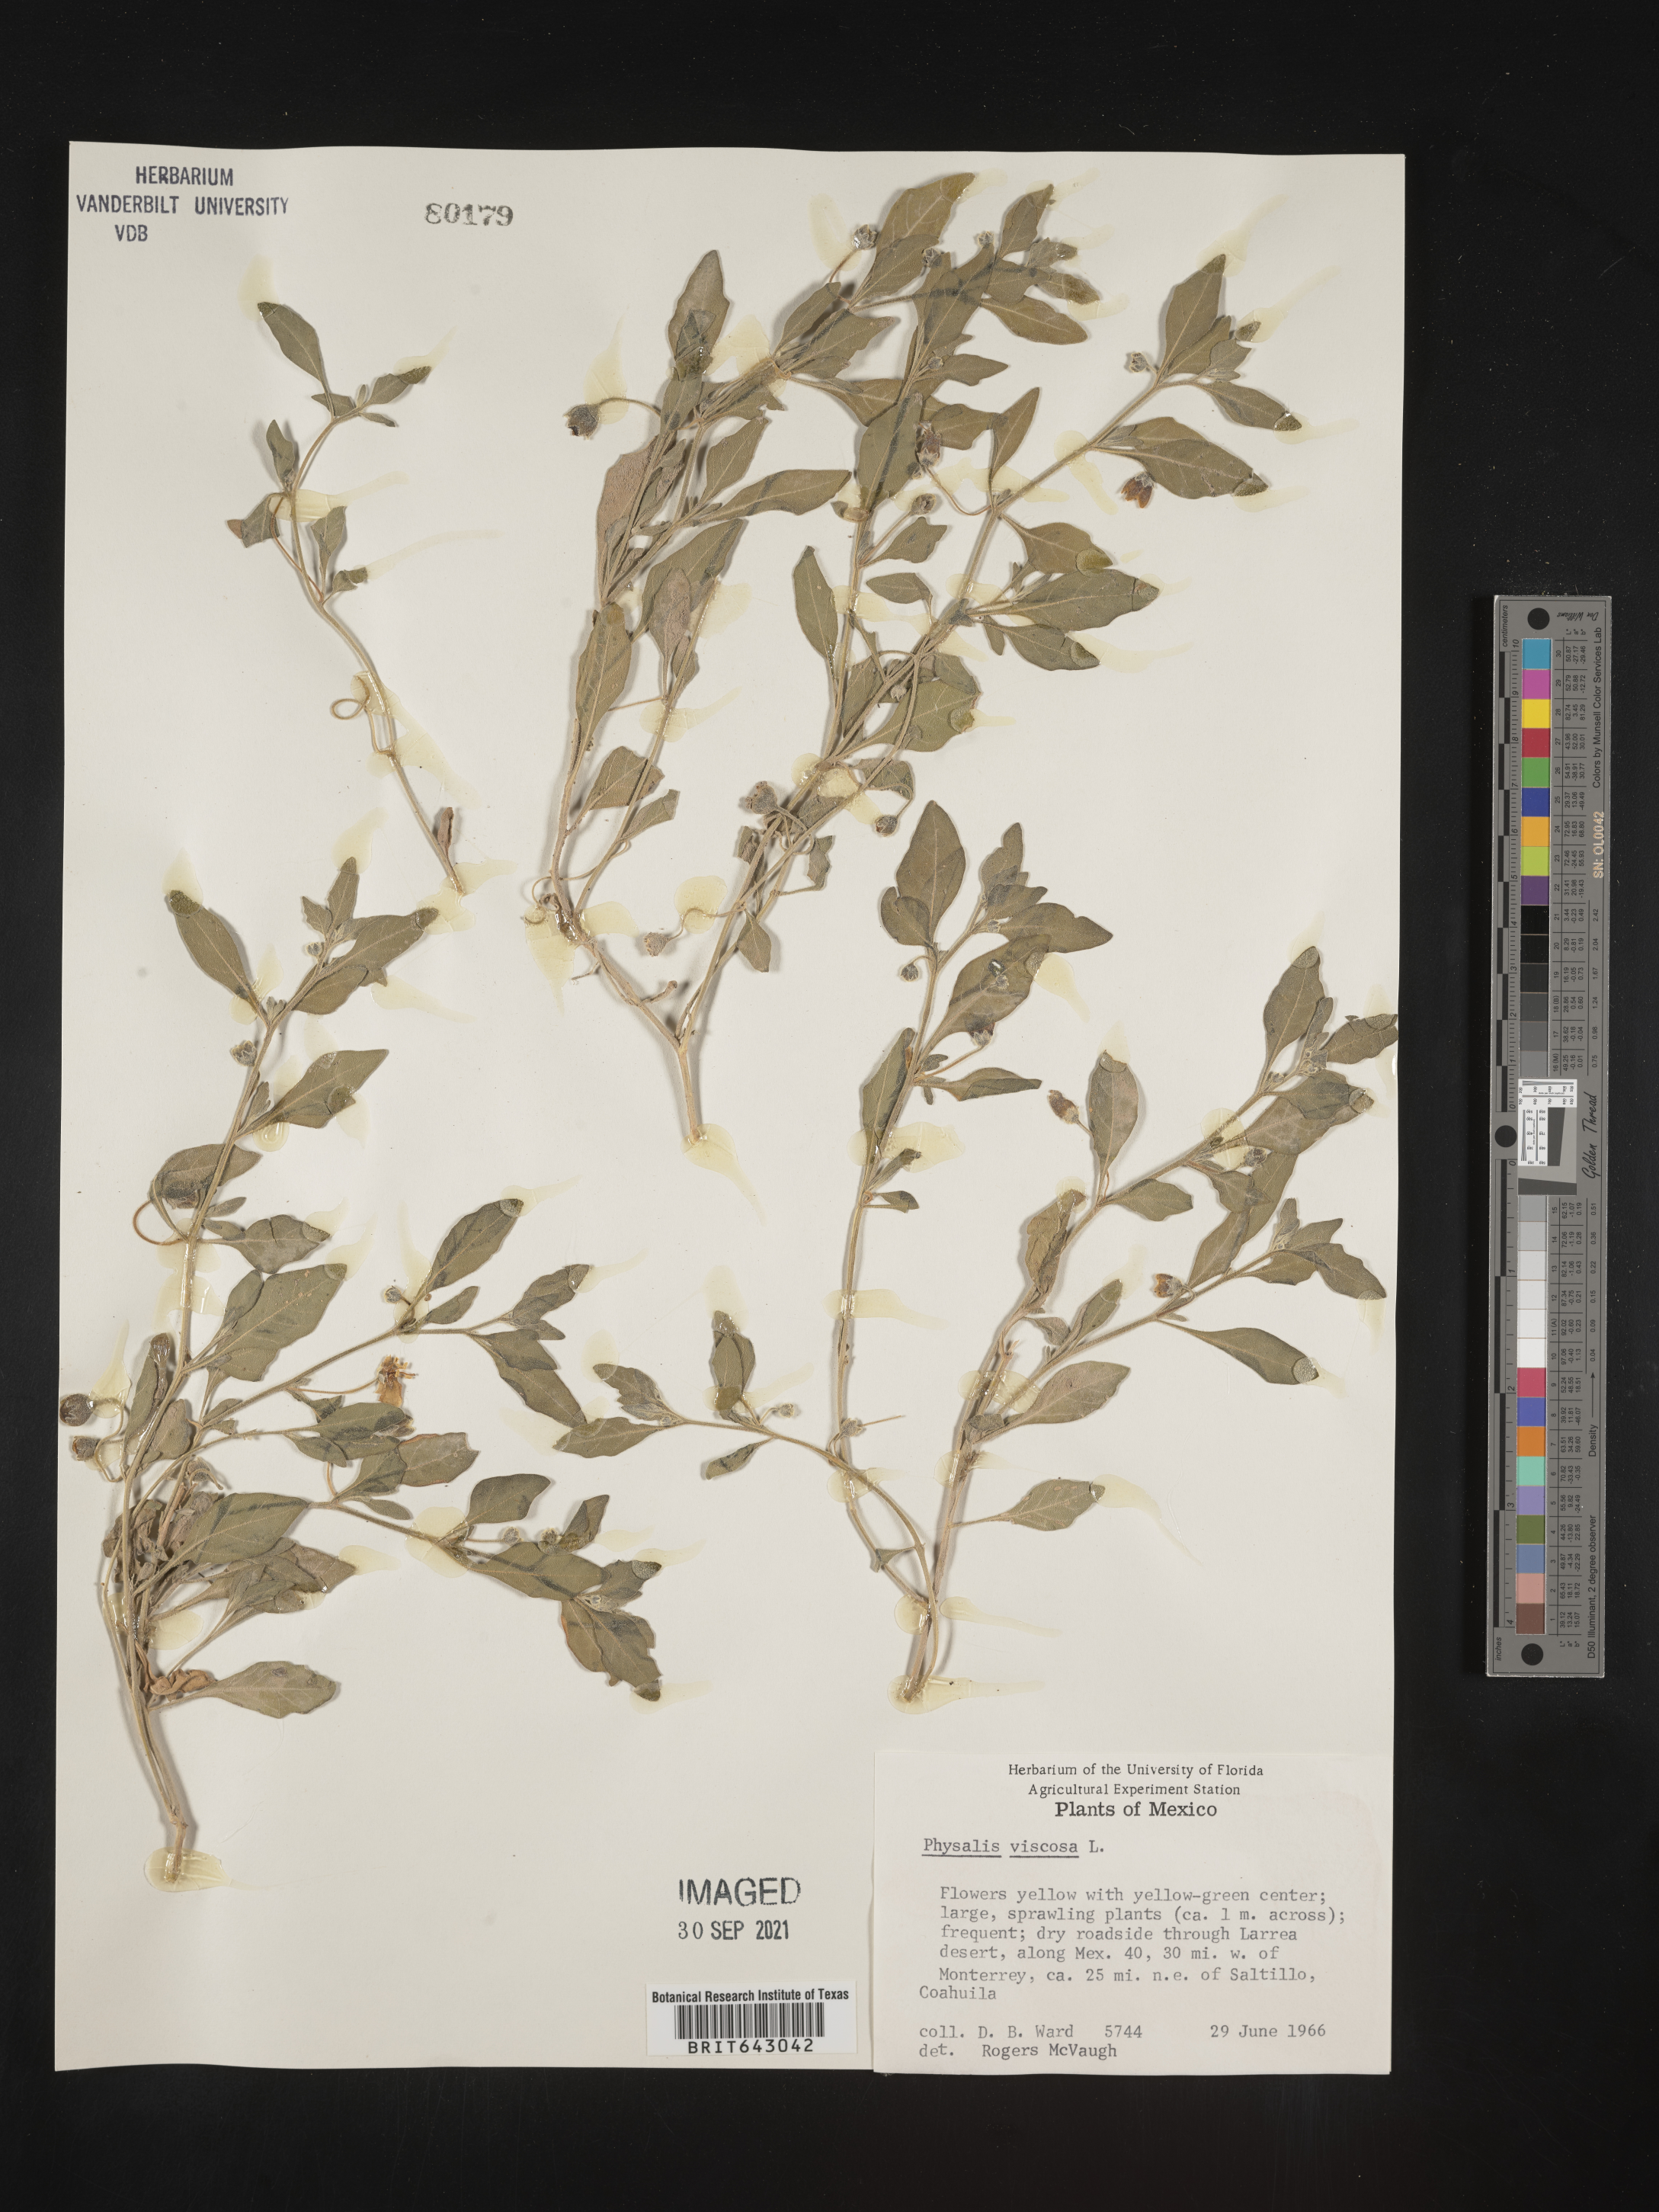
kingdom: Plantae
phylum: Tracheophyta
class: Magnoliopsida
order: Solanales
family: Solanaceae
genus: Physalis
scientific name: Physalis
